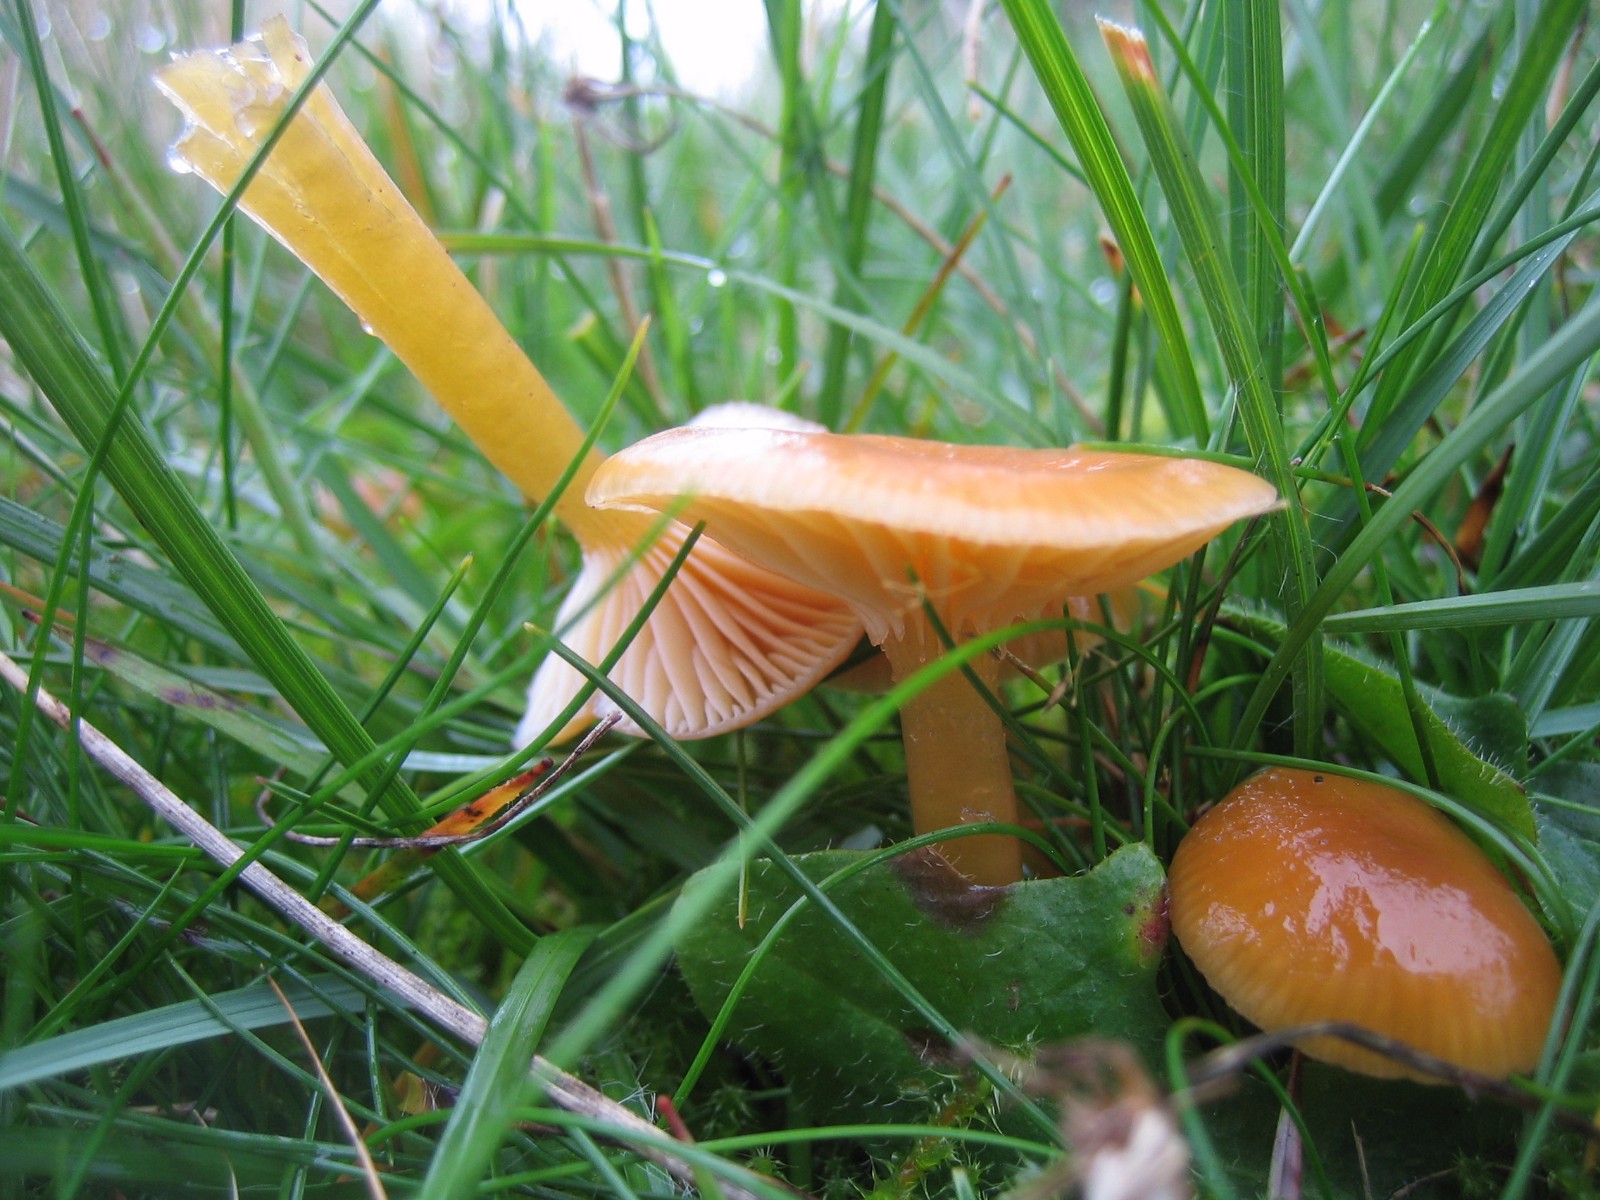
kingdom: Fungi
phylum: Basidiomycota
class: Agaricomycetes
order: Agaricales
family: Hygrophoraceae
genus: Gliophorus
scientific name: Gliophorus laetus
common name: brusk-vokshat
